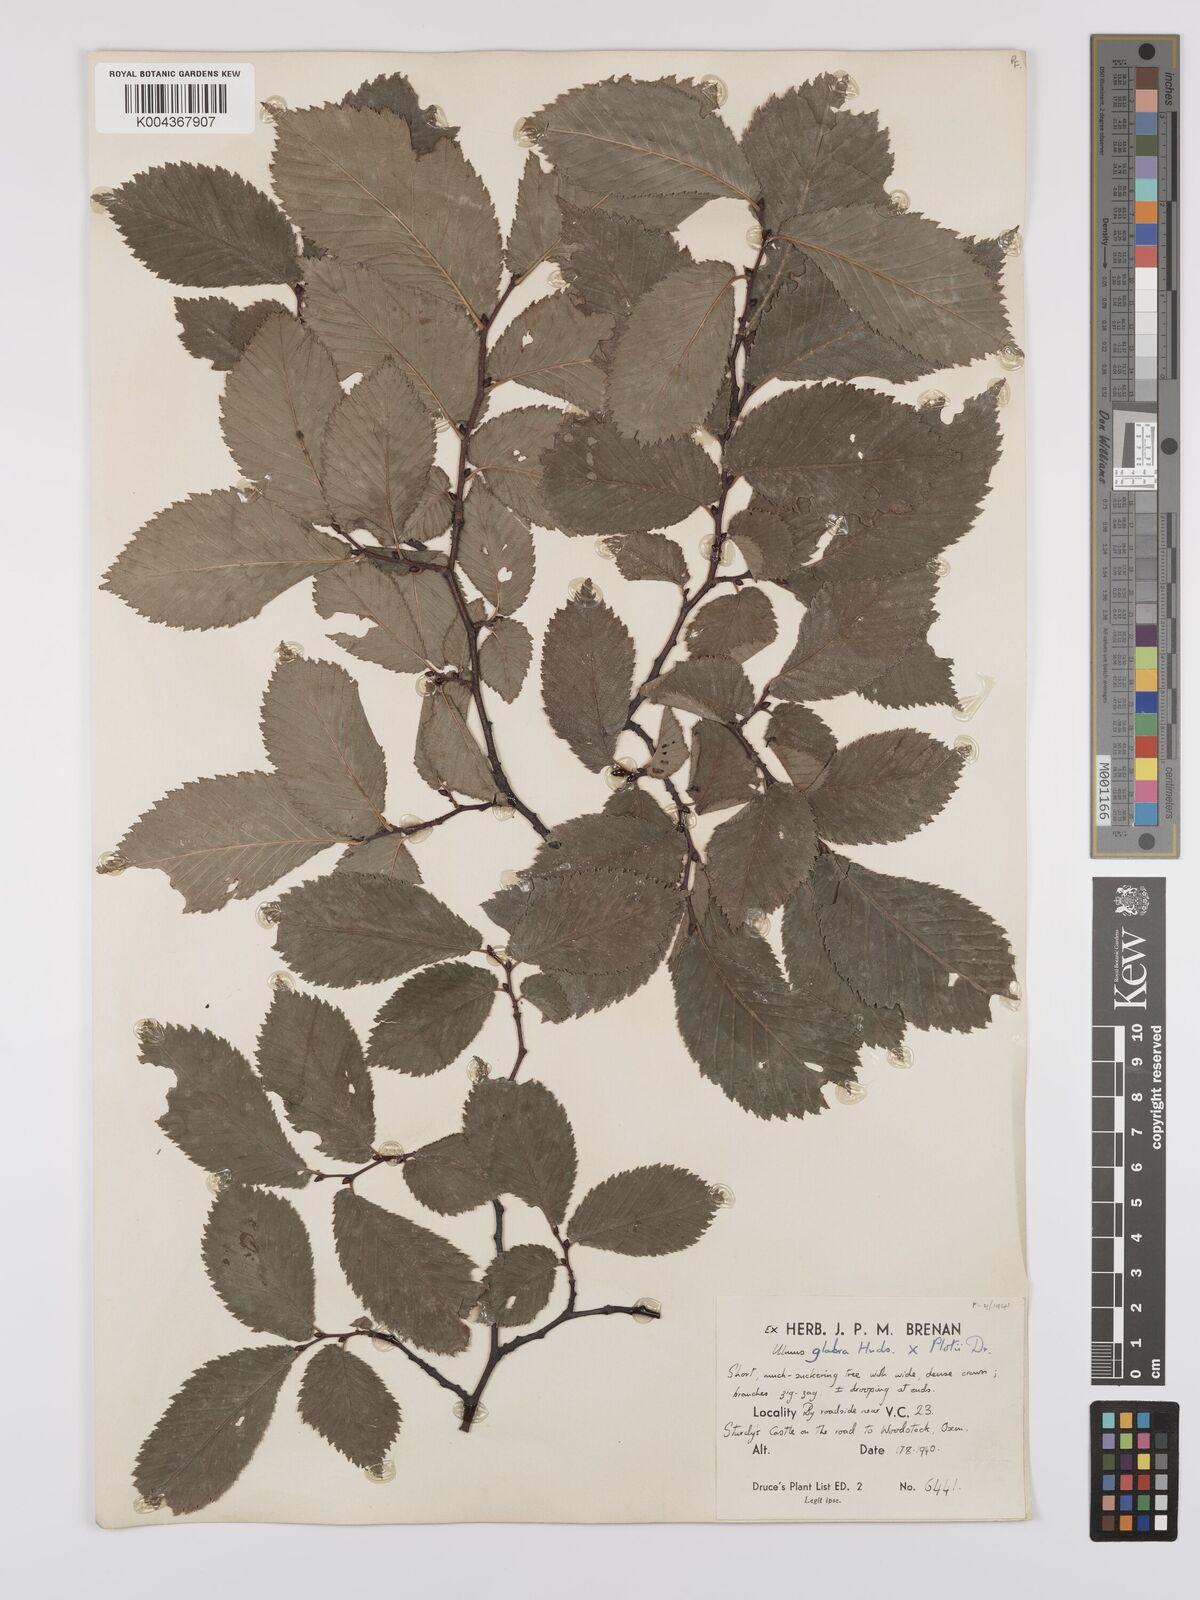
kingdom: Plantae
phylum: Tracheophyta
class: Magnoliopsida
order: Rosales
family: Ulmaceae
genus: Ulmus
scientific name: Ulmus glabra
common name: Wych elm
